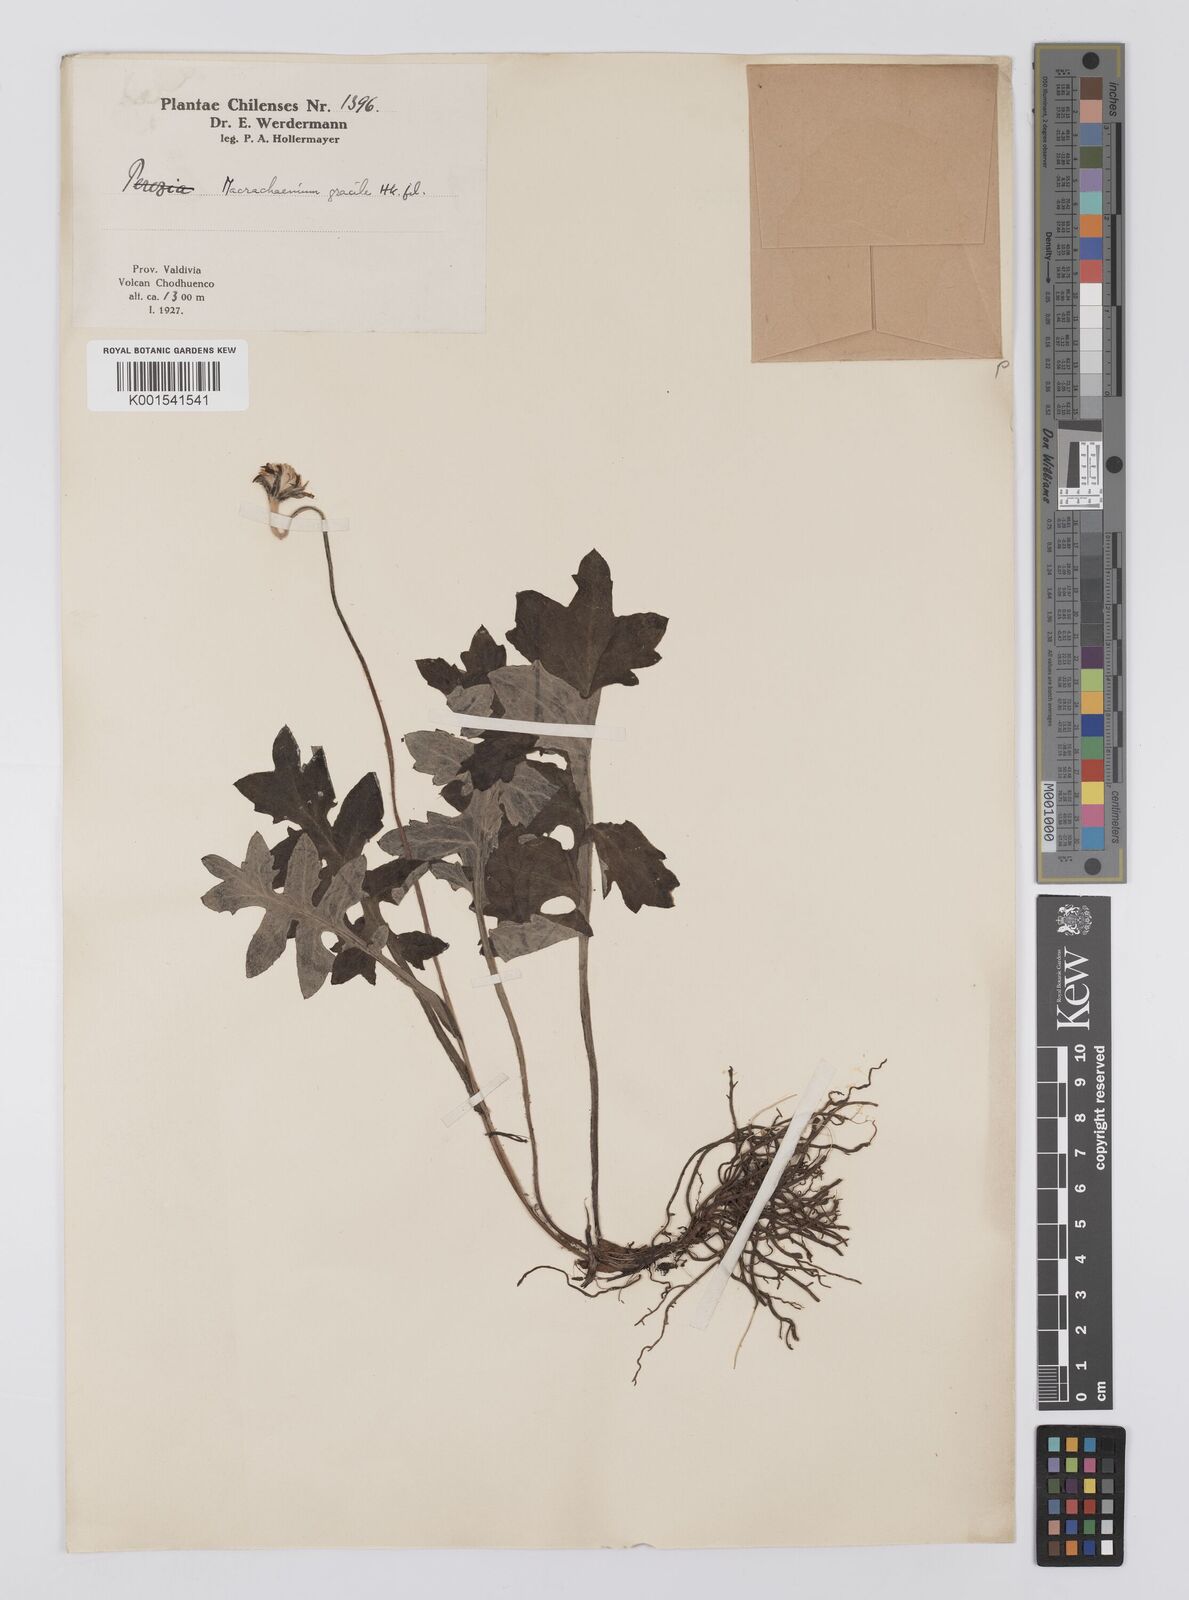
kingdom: Plantae
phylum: Tracheophyta
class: Magnoliopsida
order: Asterales
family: Asteraceae
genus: Macrachaenium
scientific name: Macrachaenium gracile
